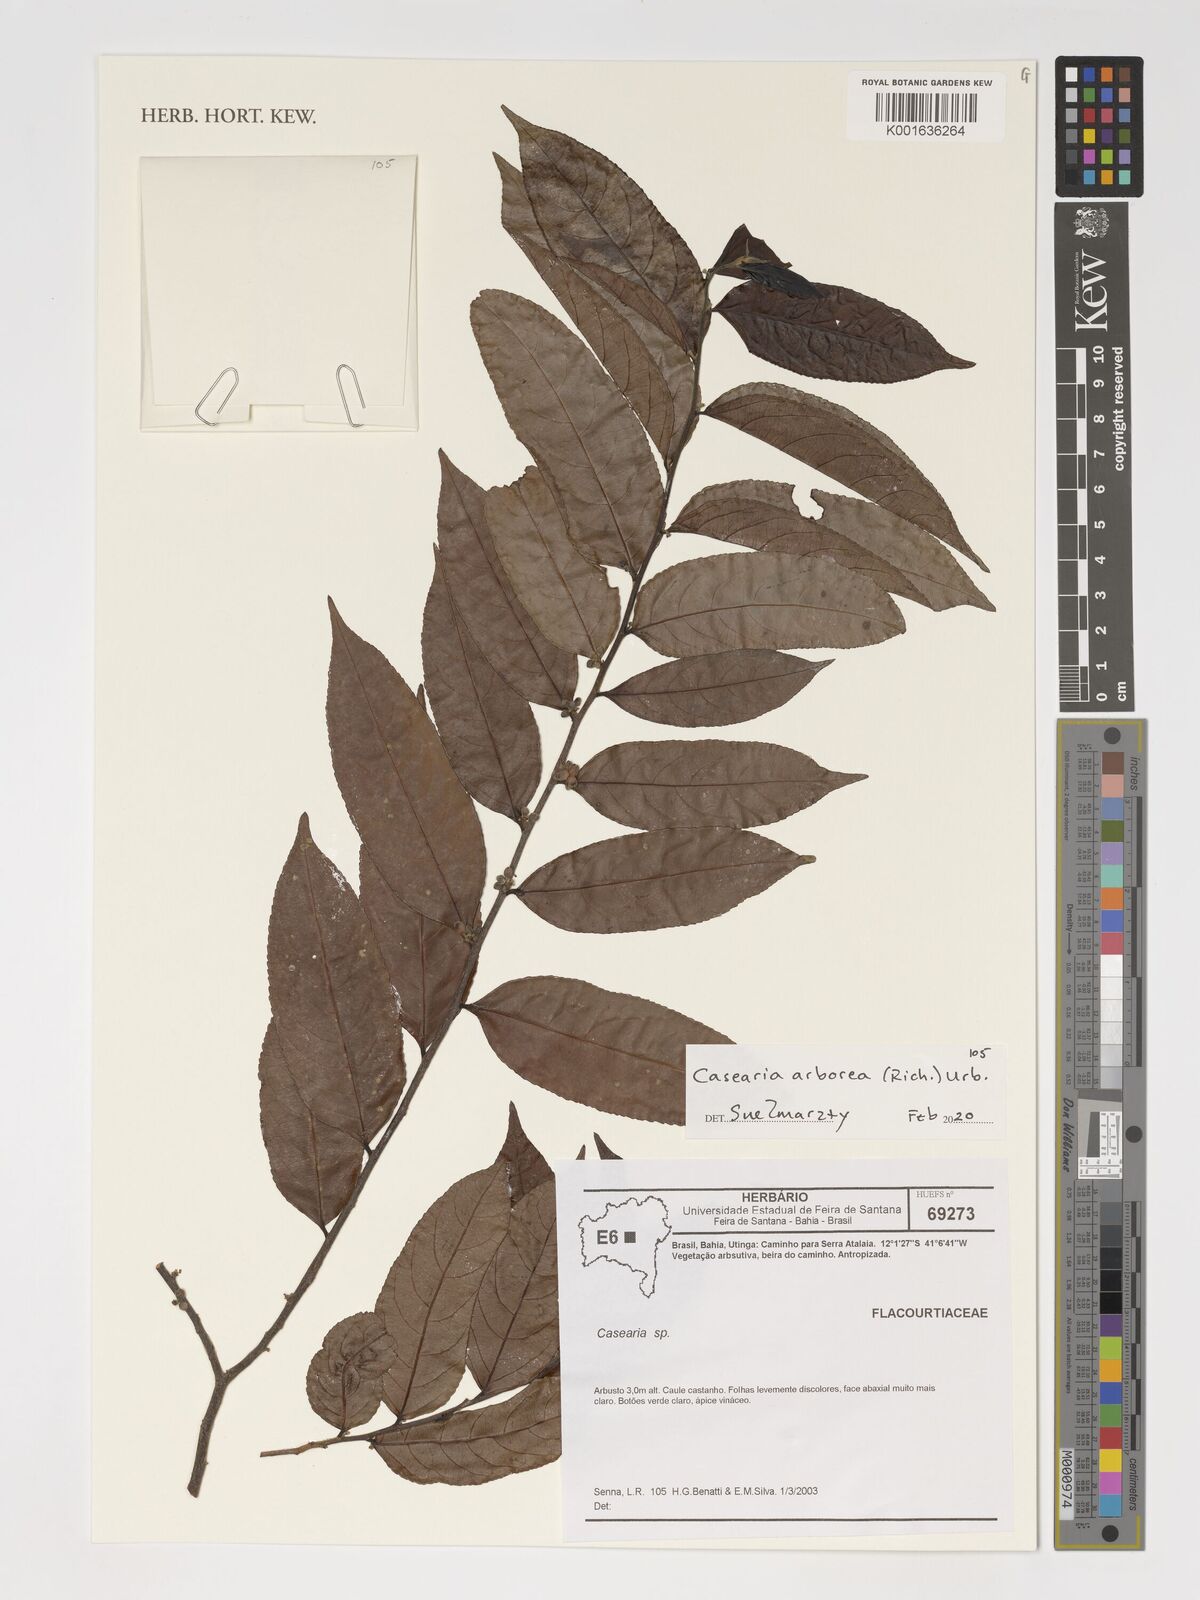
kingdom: Plantae
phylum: Tracheophyta
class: Magnoliopsida
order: Malpighiales
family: Salicaceae
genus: Casearia
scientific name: Casearia arborea
